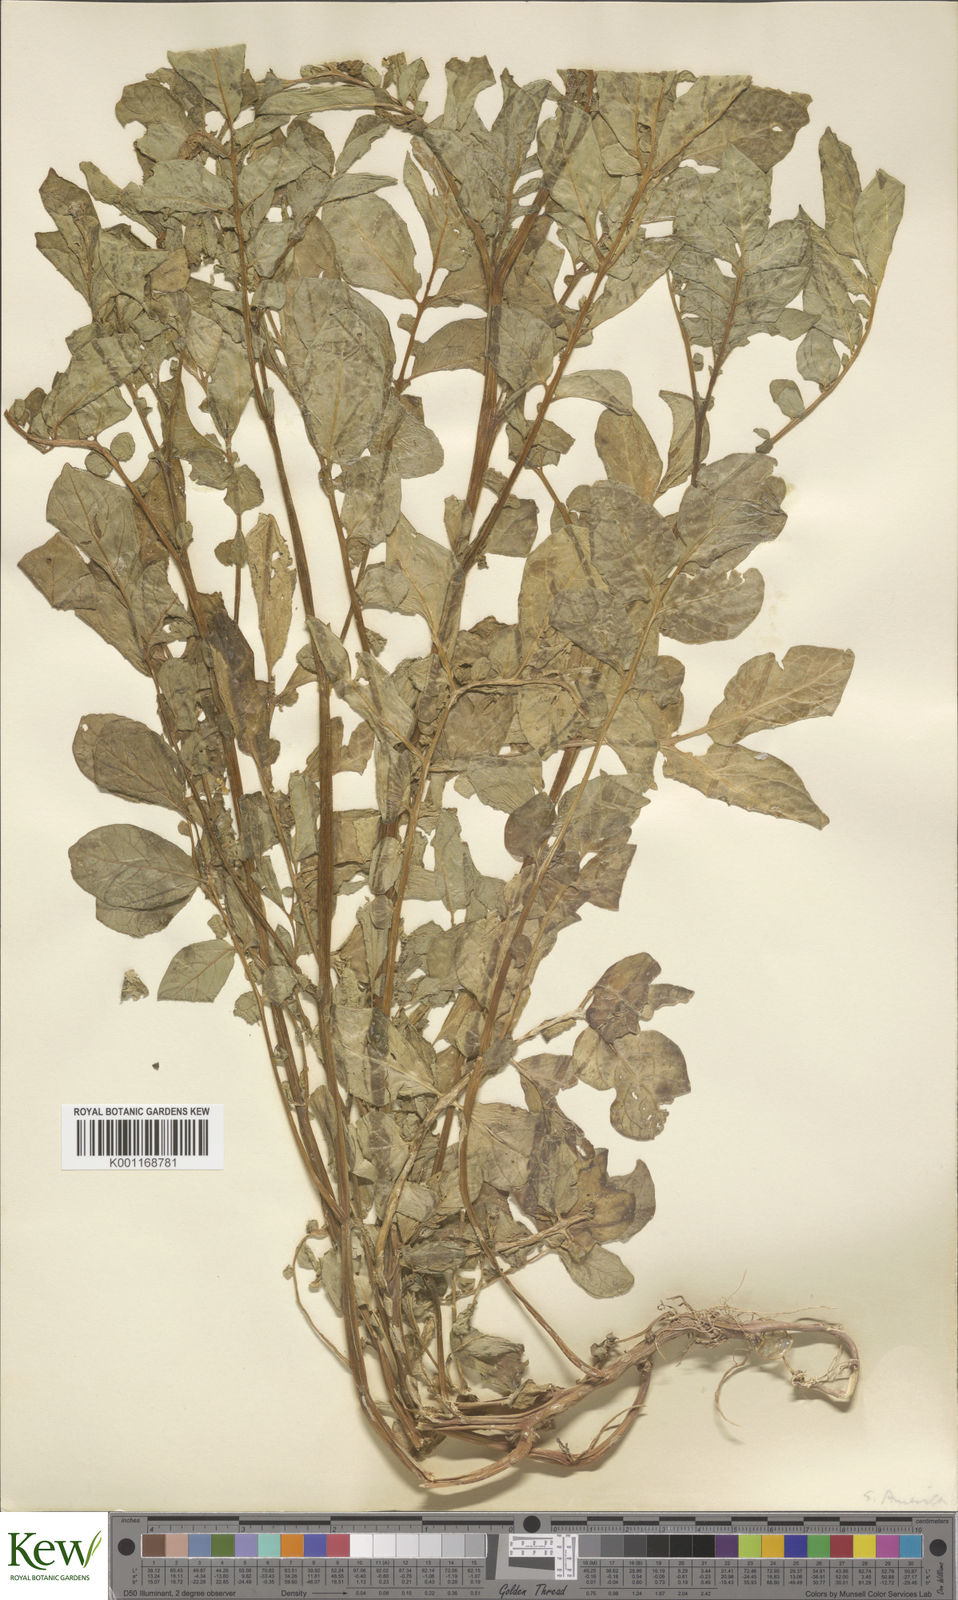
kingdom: Plantae
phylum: Tracheophyta
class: Magnoliopsida
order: Solanales
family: Solanaceae
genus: Solanum
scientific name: Solanum chaucha
